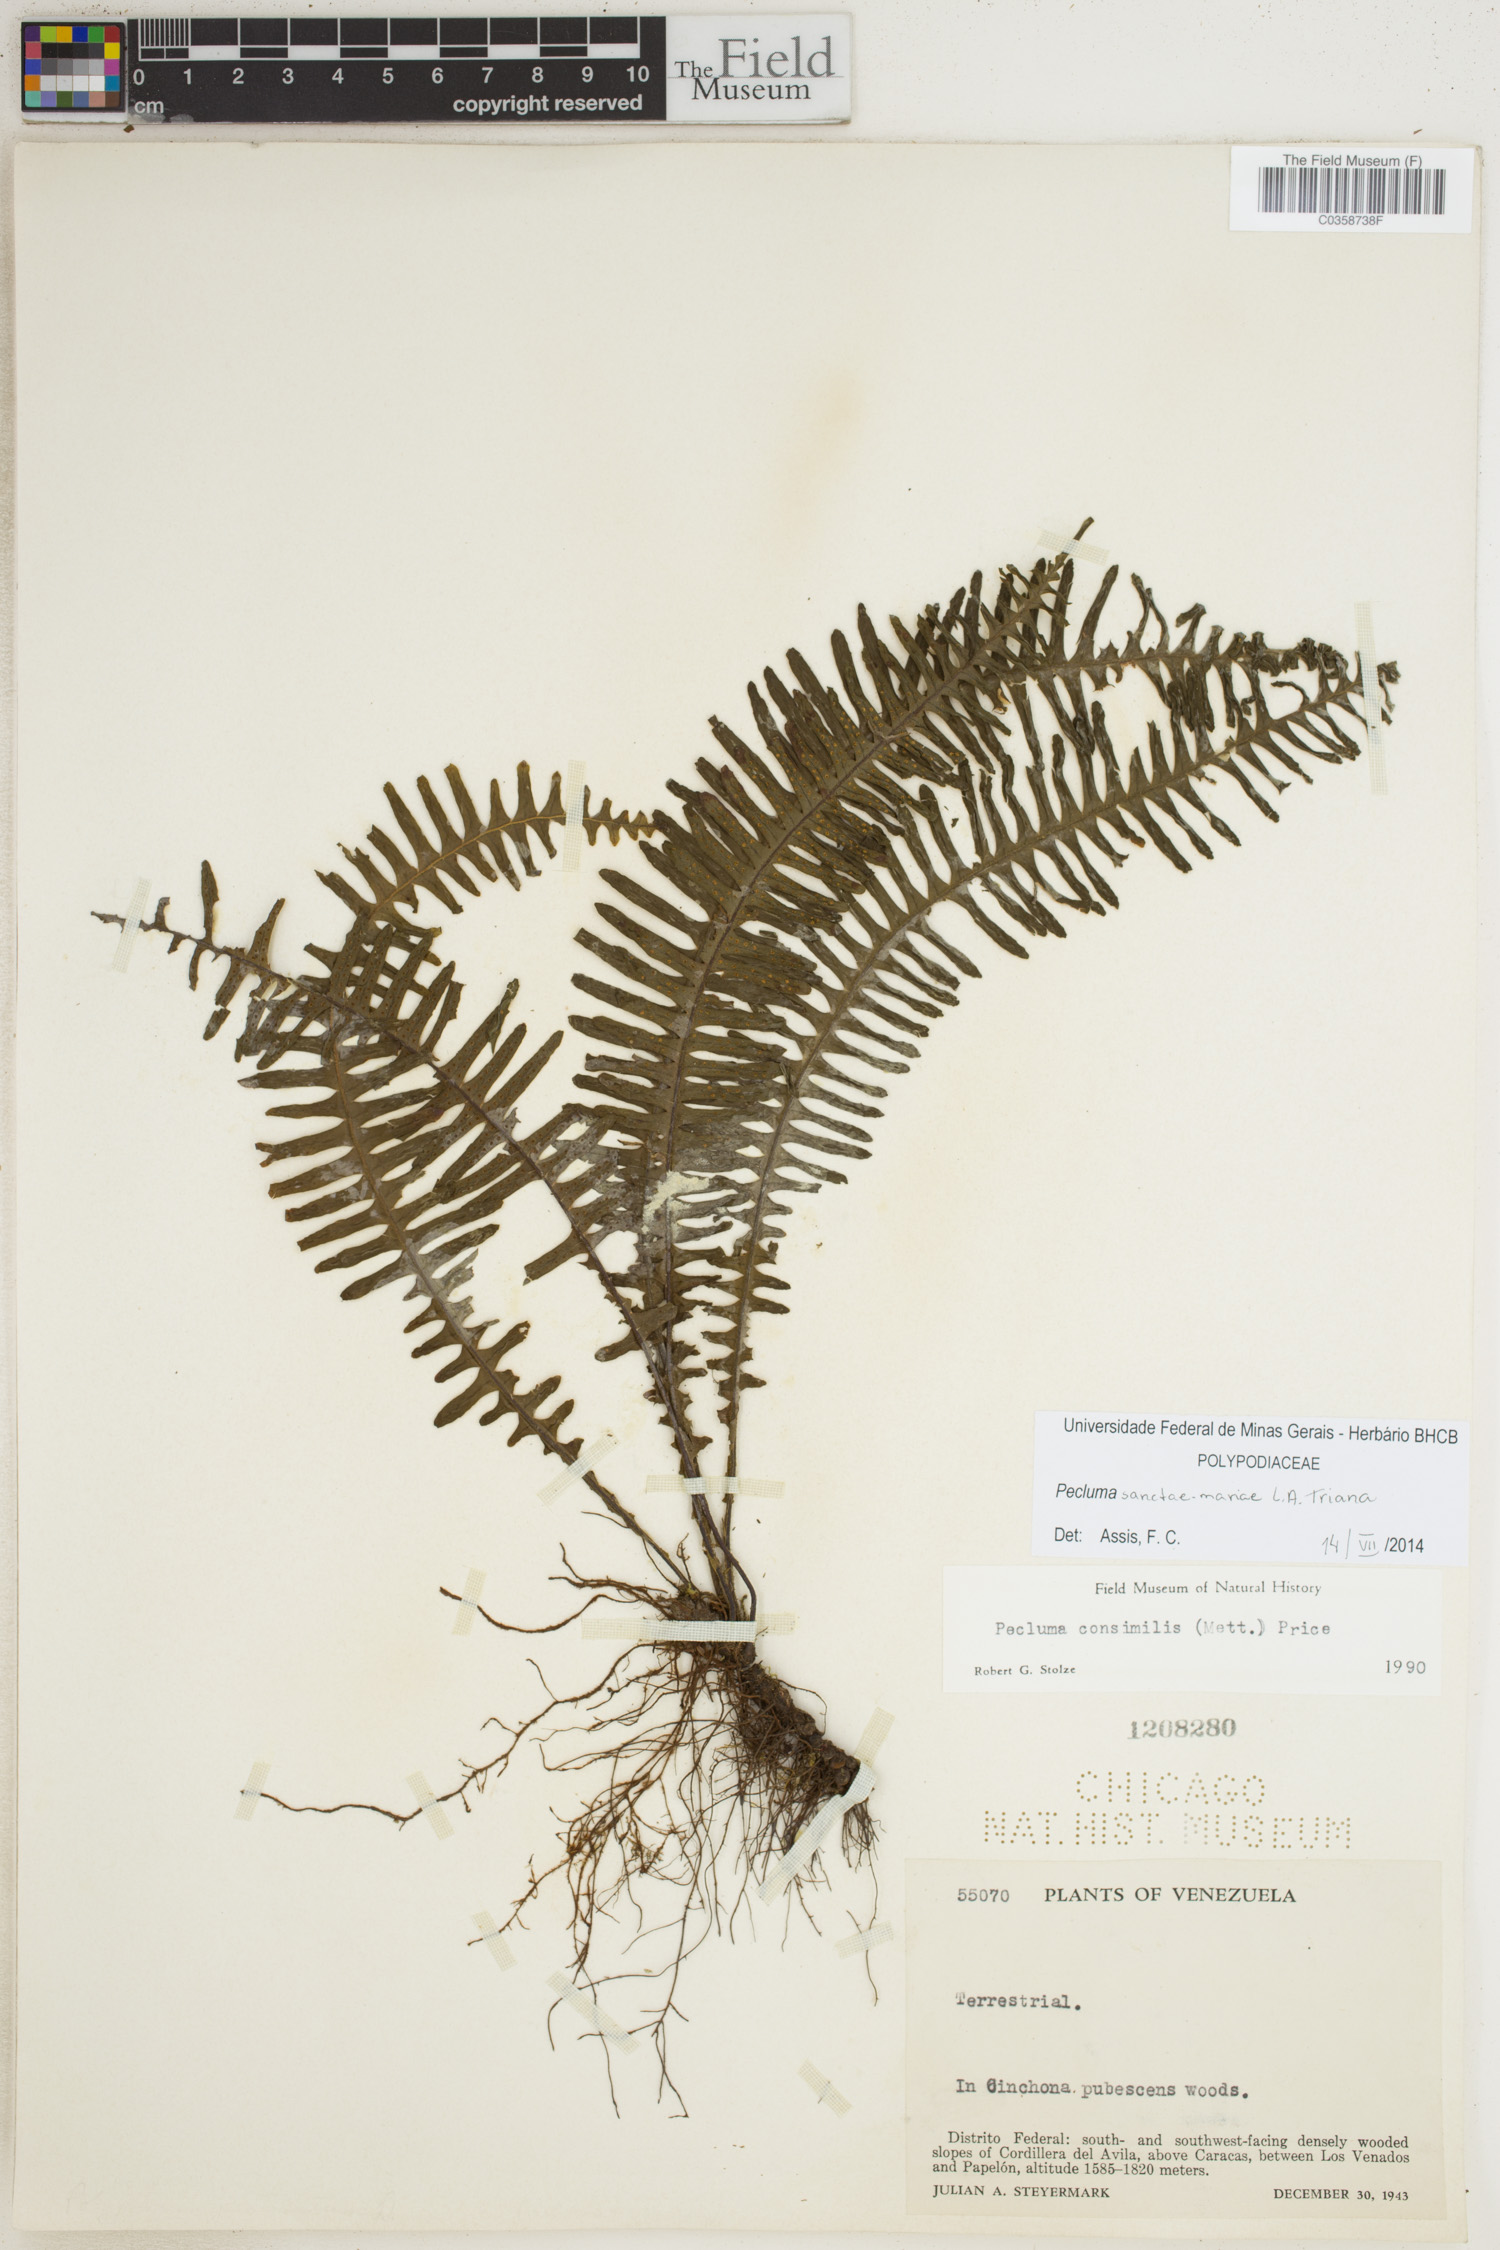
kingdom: Plantae
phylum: Tracheophyta
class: Polypodiopsida
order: Polypodiales
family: Polypodiaceae
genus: Pecluma
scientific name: Pecluma sanctae-mariae
